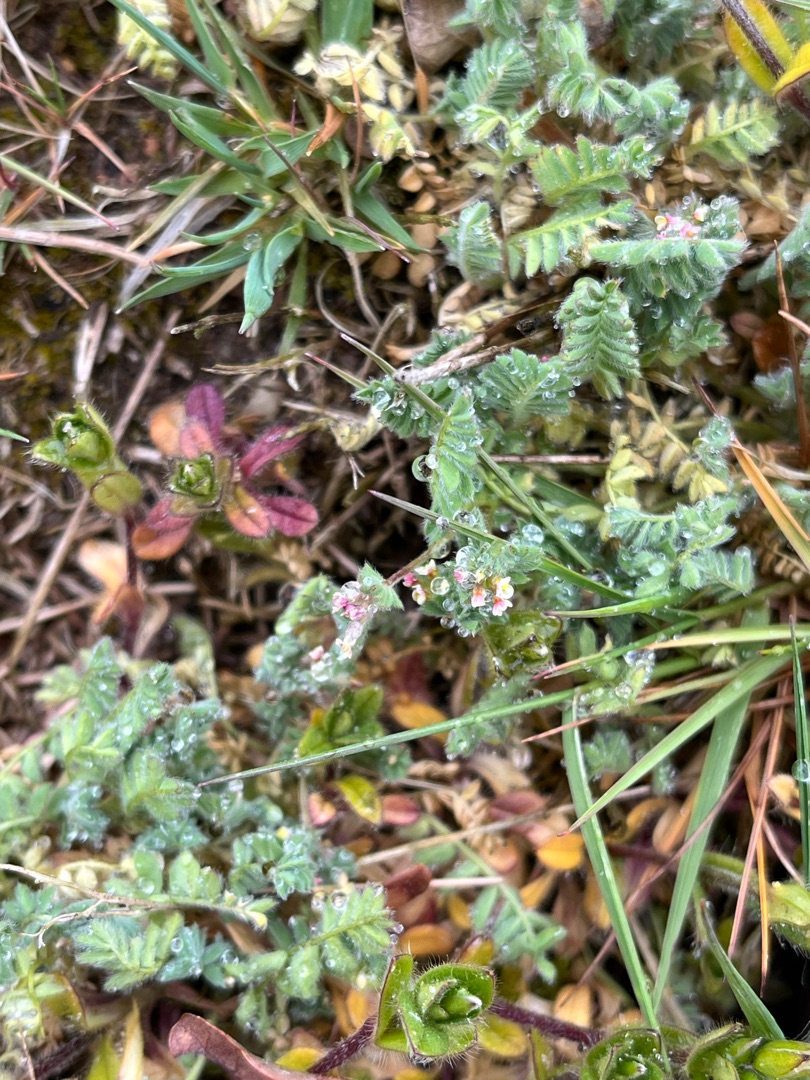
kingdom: Plantae
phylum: Tracheophyta
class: Magnoliopsida
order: Fabales
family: Fabaceae
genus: Ornithopus
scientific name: Ornithopus perpusillus
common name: Liden fugleklo
